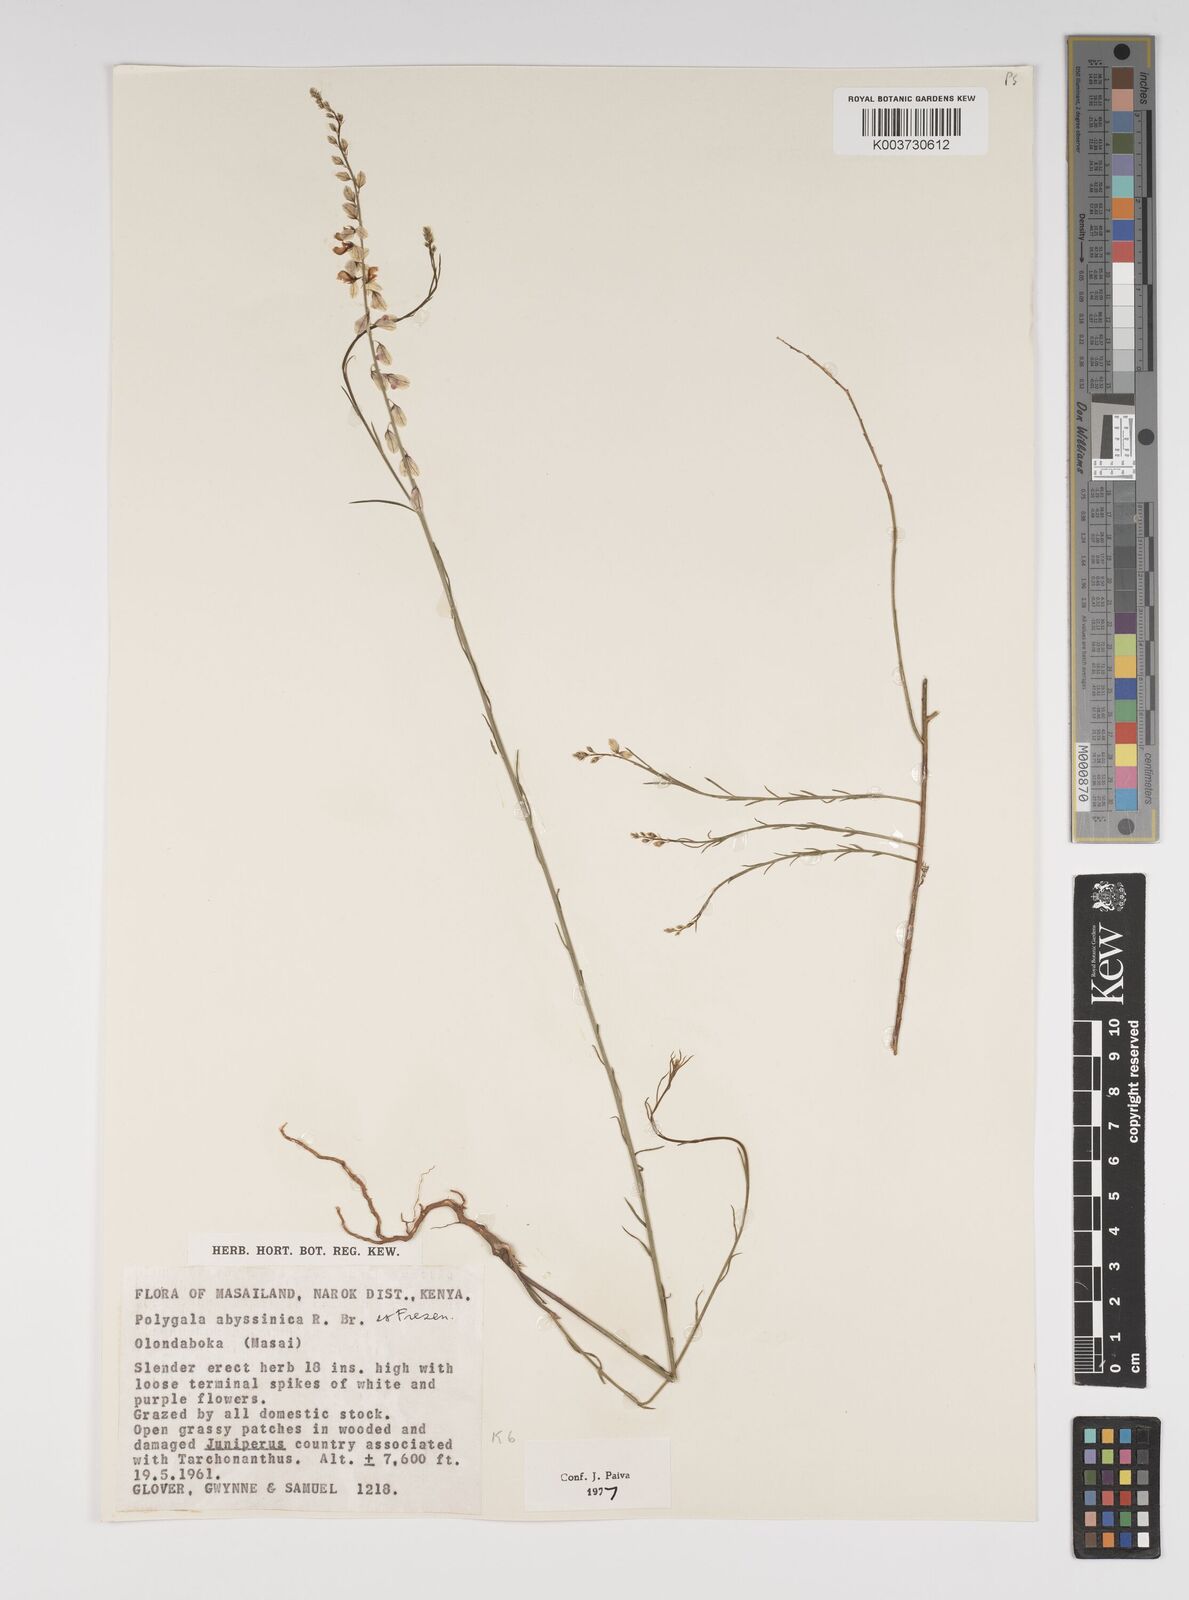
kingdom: Plantae
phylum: Tracheophyta
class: Magnoliopsida
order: Fabales
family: Polygalaceae
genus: Polygala
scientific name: Polygala abyssinica
